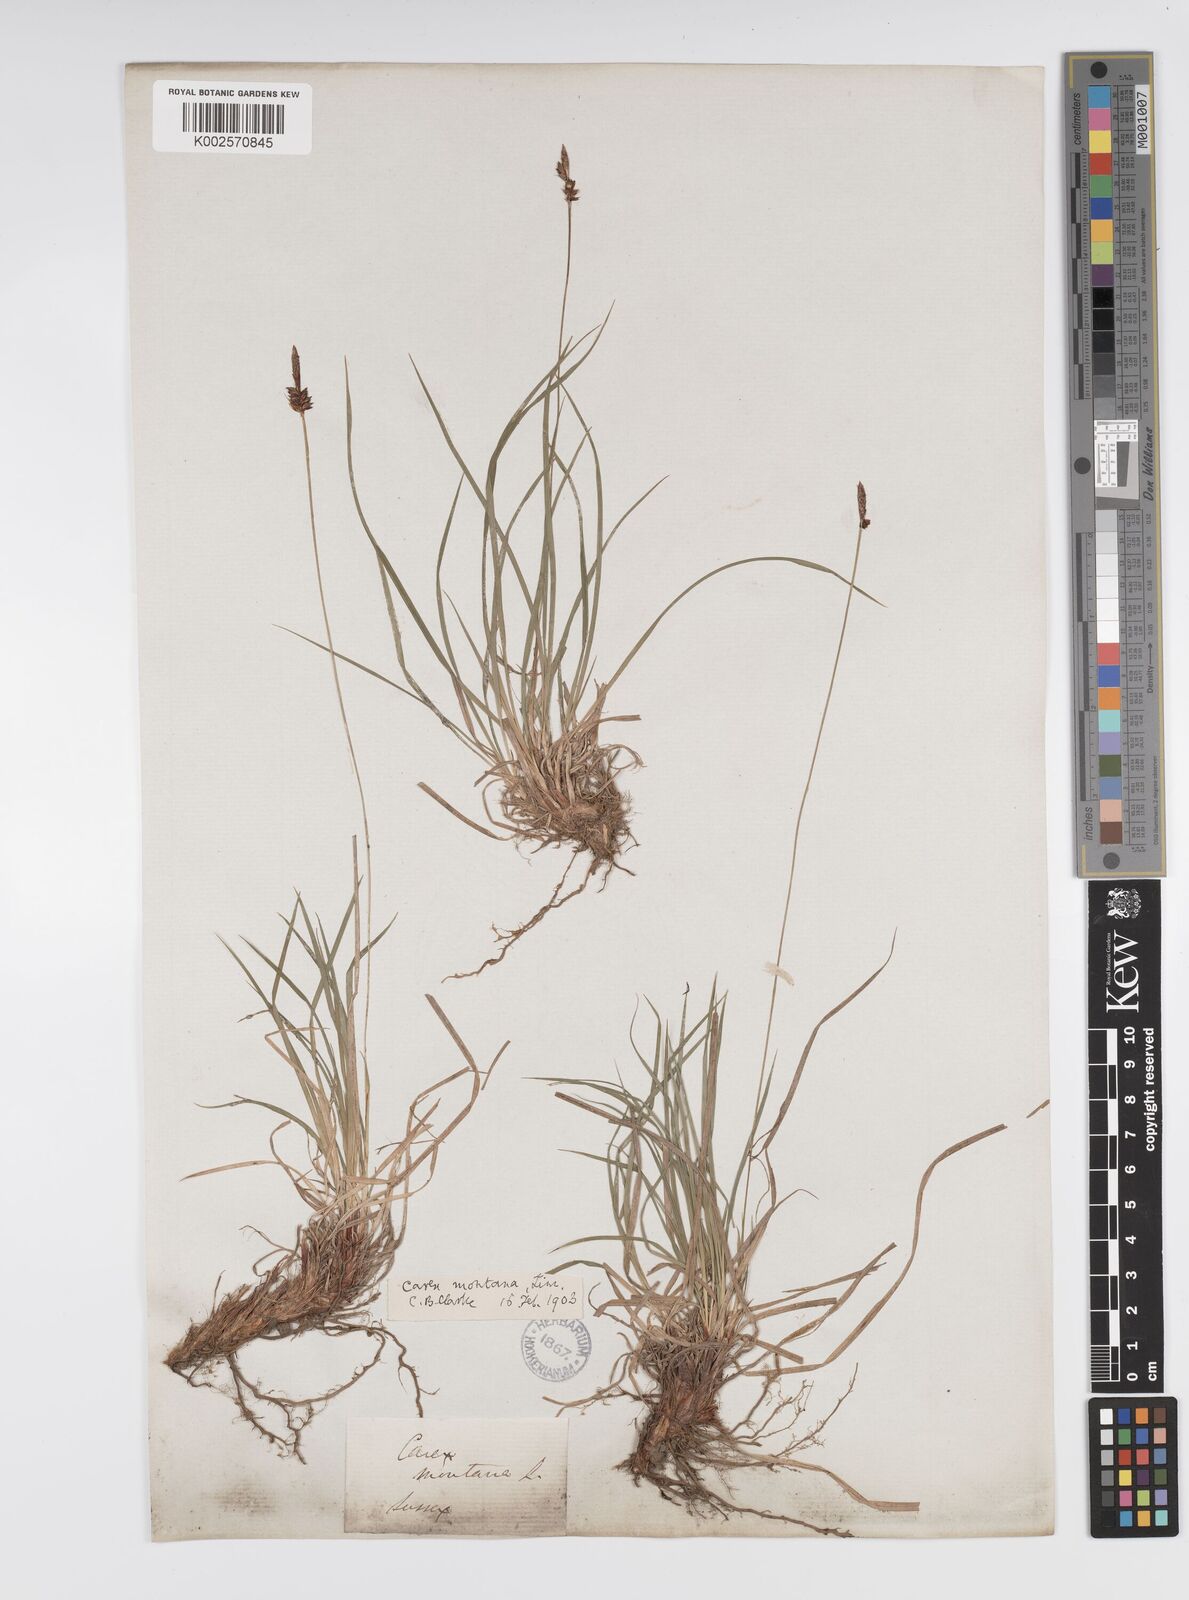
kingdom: Plantae
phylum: Tracheophyta
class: Liliopsida
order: Poales
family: Cyperaceae
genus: Carex
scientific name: Carex montana
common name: Soft-leaved sedge
